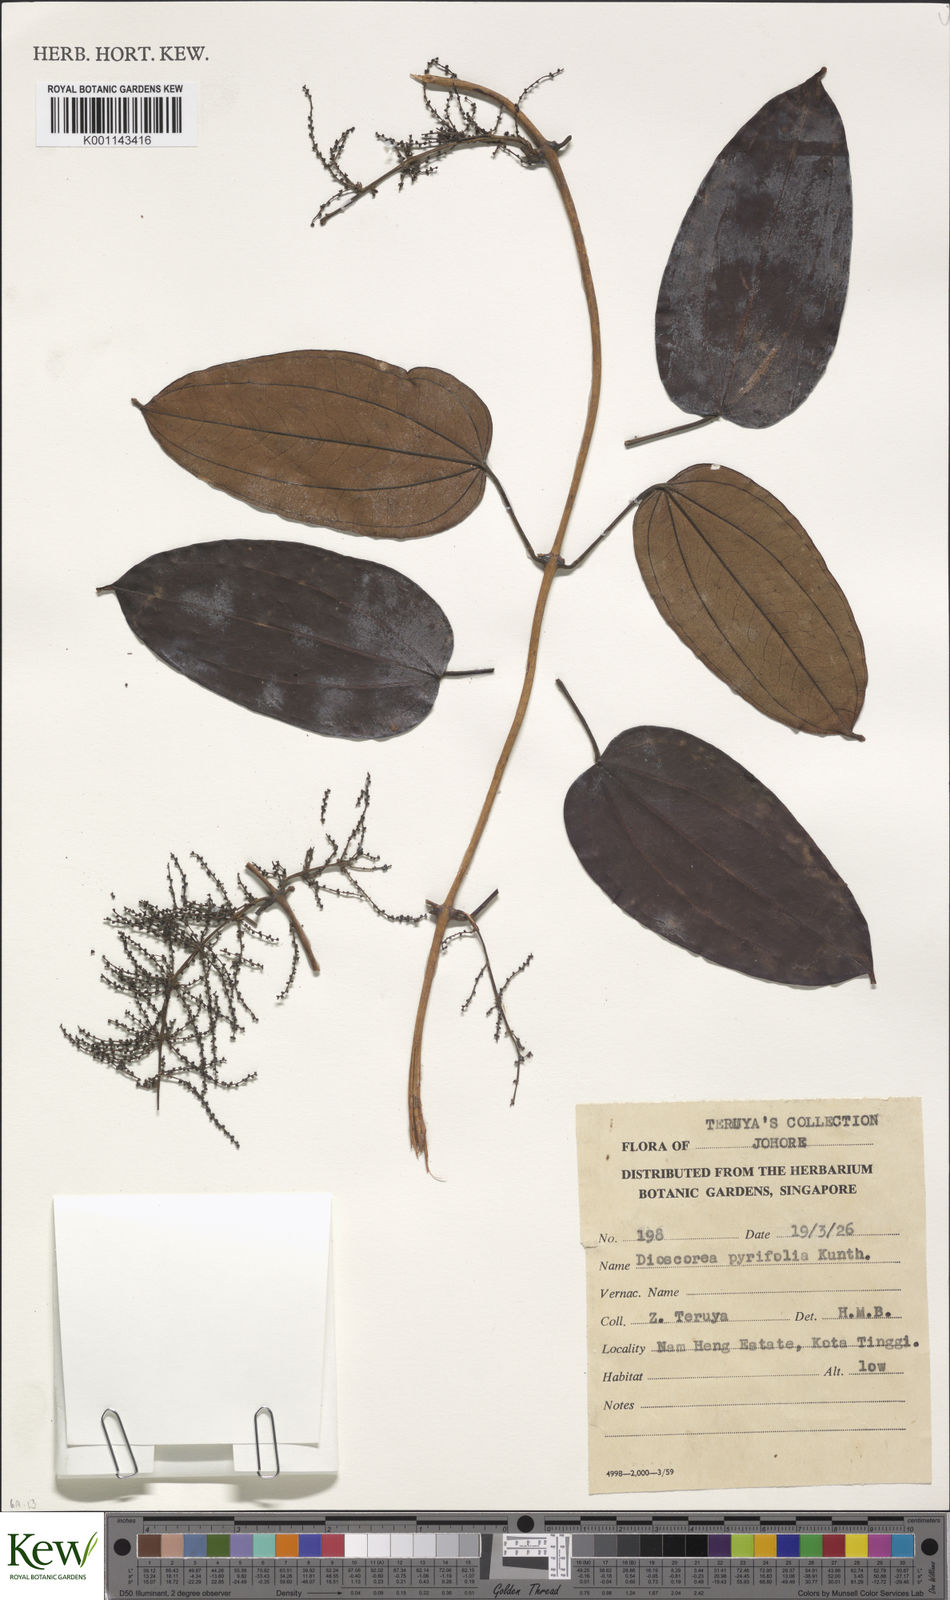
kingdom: Plantae
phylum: Tracheophyta
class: Liliopsida
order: Dioscoreales
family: Dioscoreaceae
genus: Dioscorea
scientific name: Dioscorea pyrifolia
